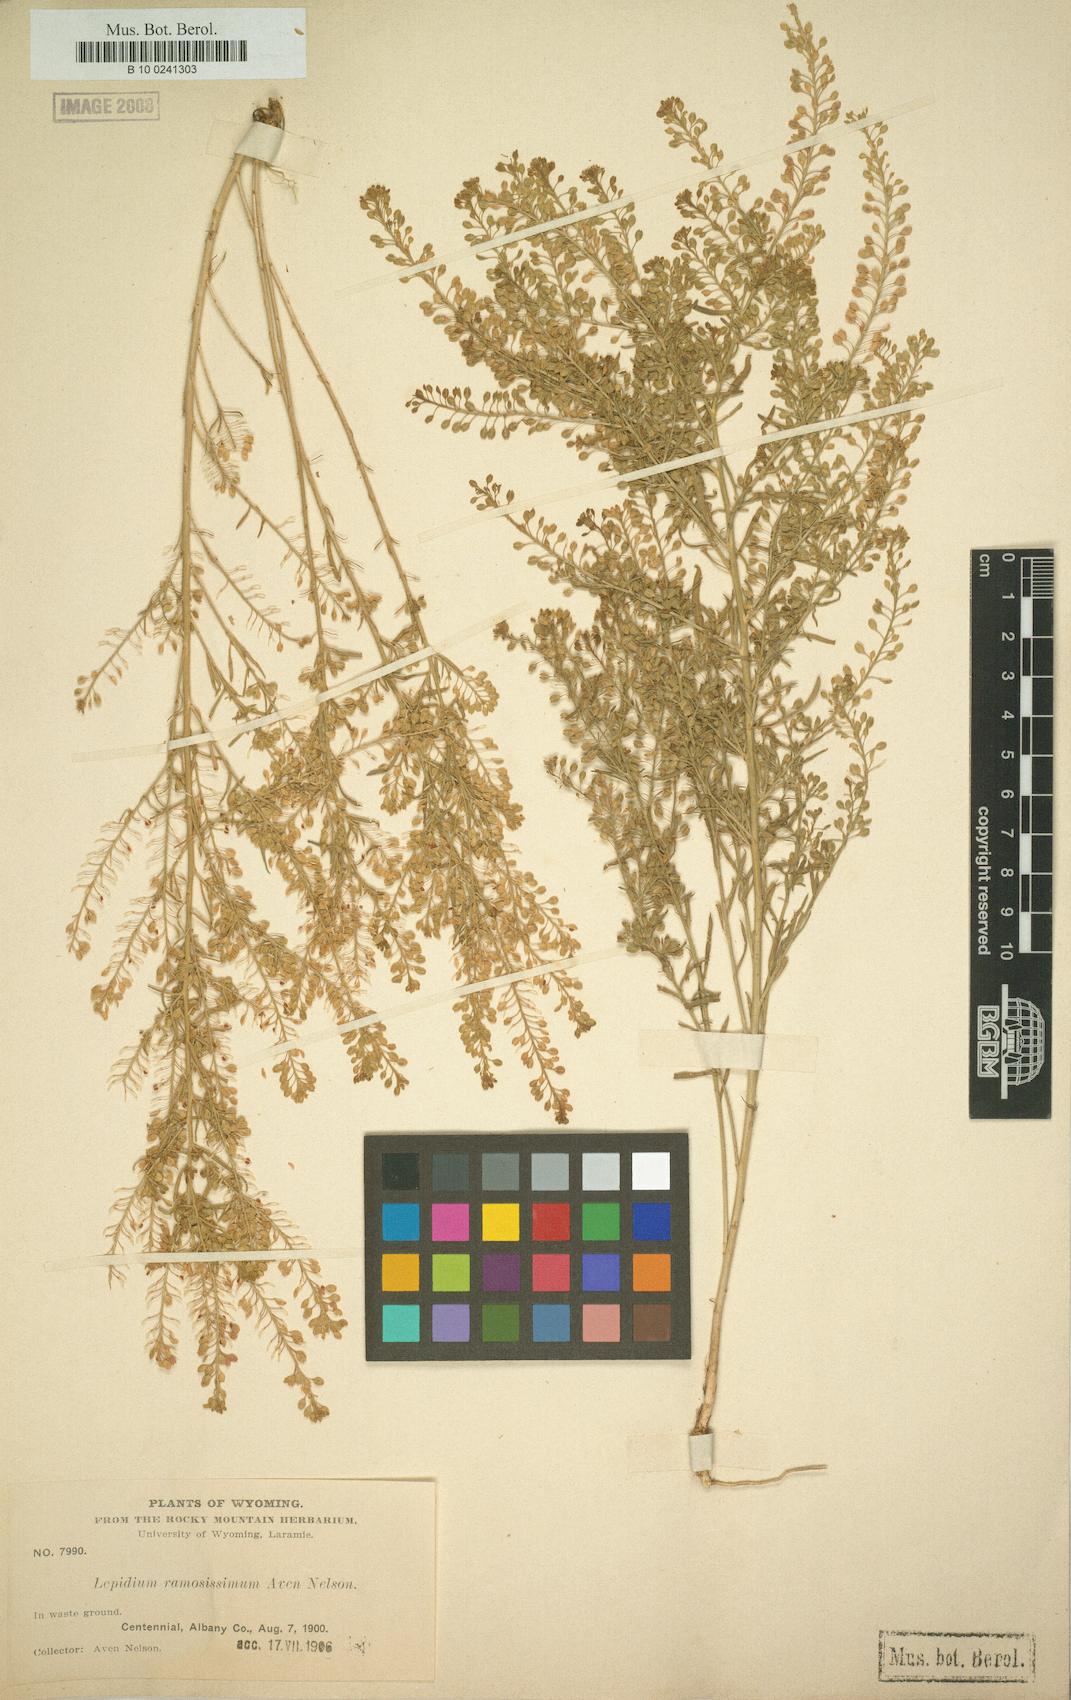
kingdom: Plantae
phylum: Tracheophyta
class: Magnoliopsida
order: Brassicales
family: Brassicaceae
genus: Lepidium
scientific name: Lepidium ramosissimum
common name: Bushy peppergrass
